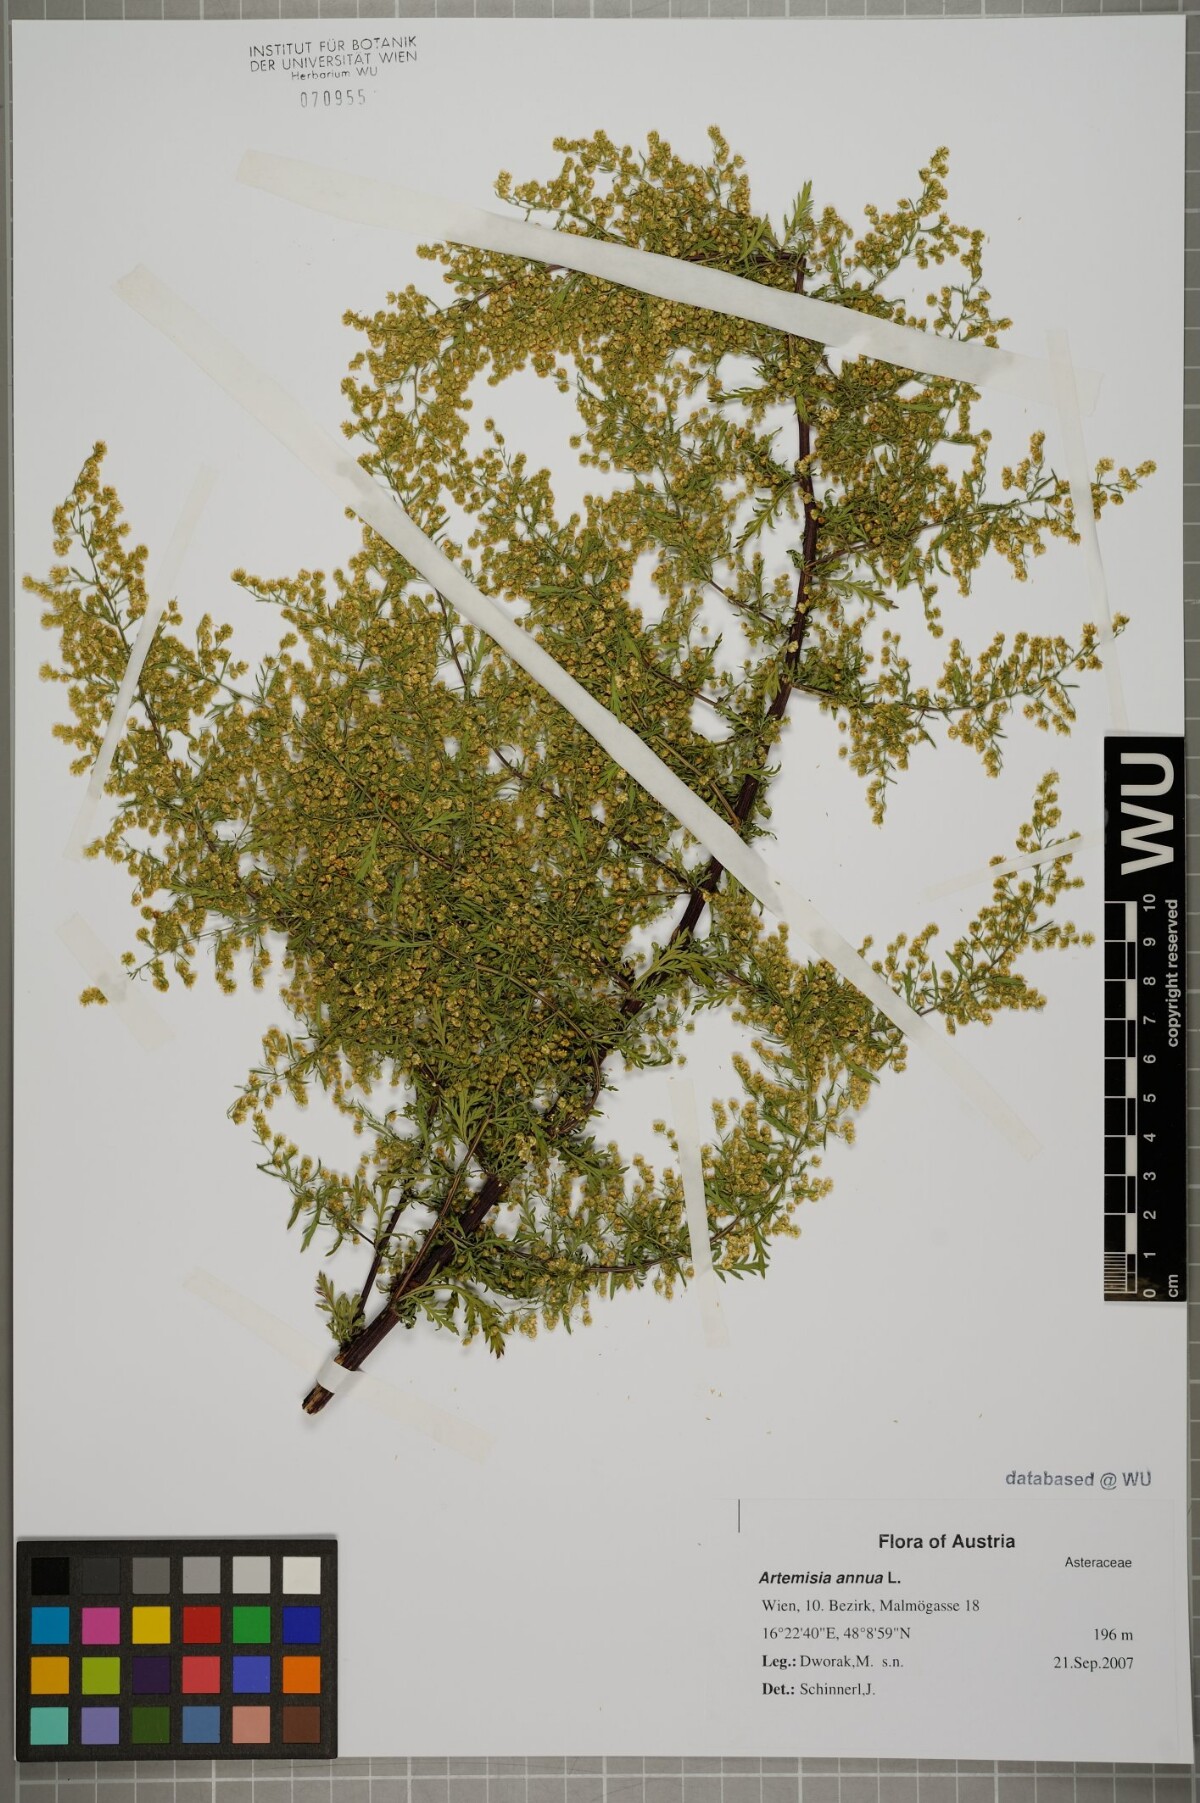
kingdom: Plantae
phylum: Tracheophyta
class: Magnoliopsida
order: Asterales
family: Asteraceae
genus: Artemisia
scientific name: Artemisia annua
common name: Sweet sagewort
